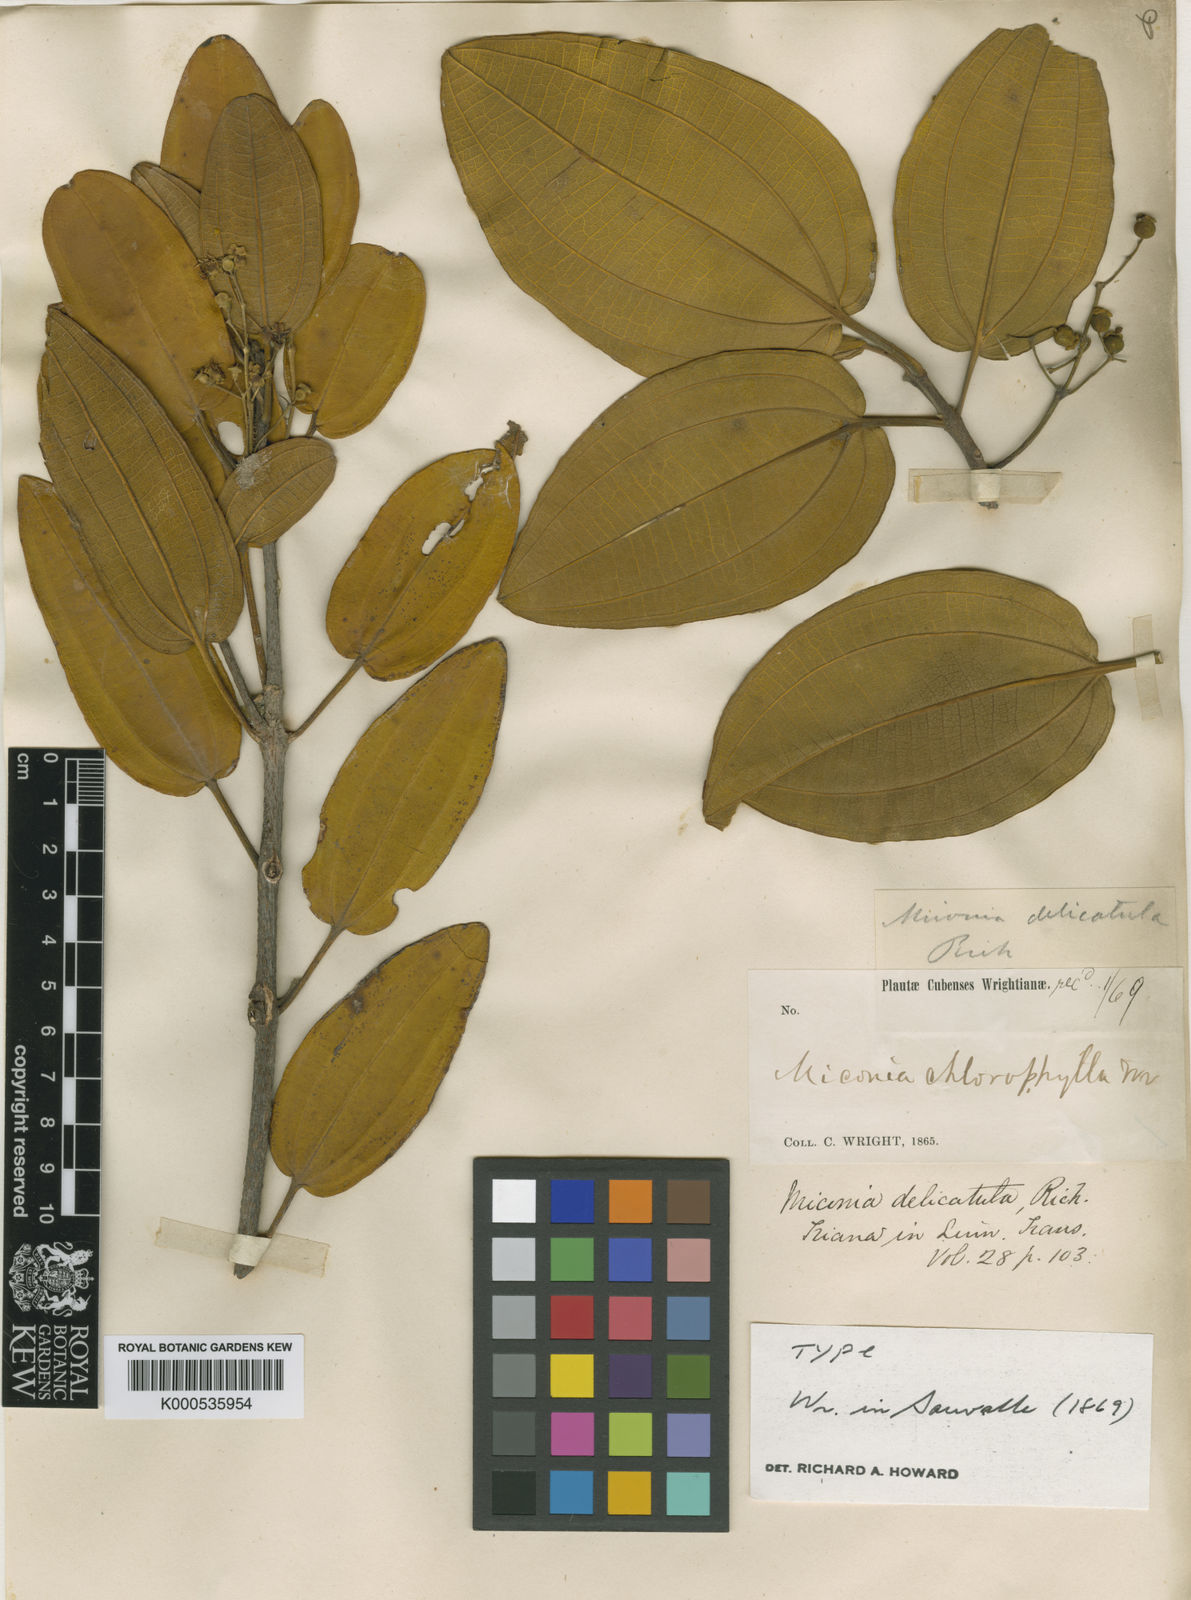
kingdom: Plantae
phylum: Tracheophyta
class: Magnoliopsida
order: Myrtales
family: Melastomataceae
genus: Miconia
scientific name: Miconia delicatula
